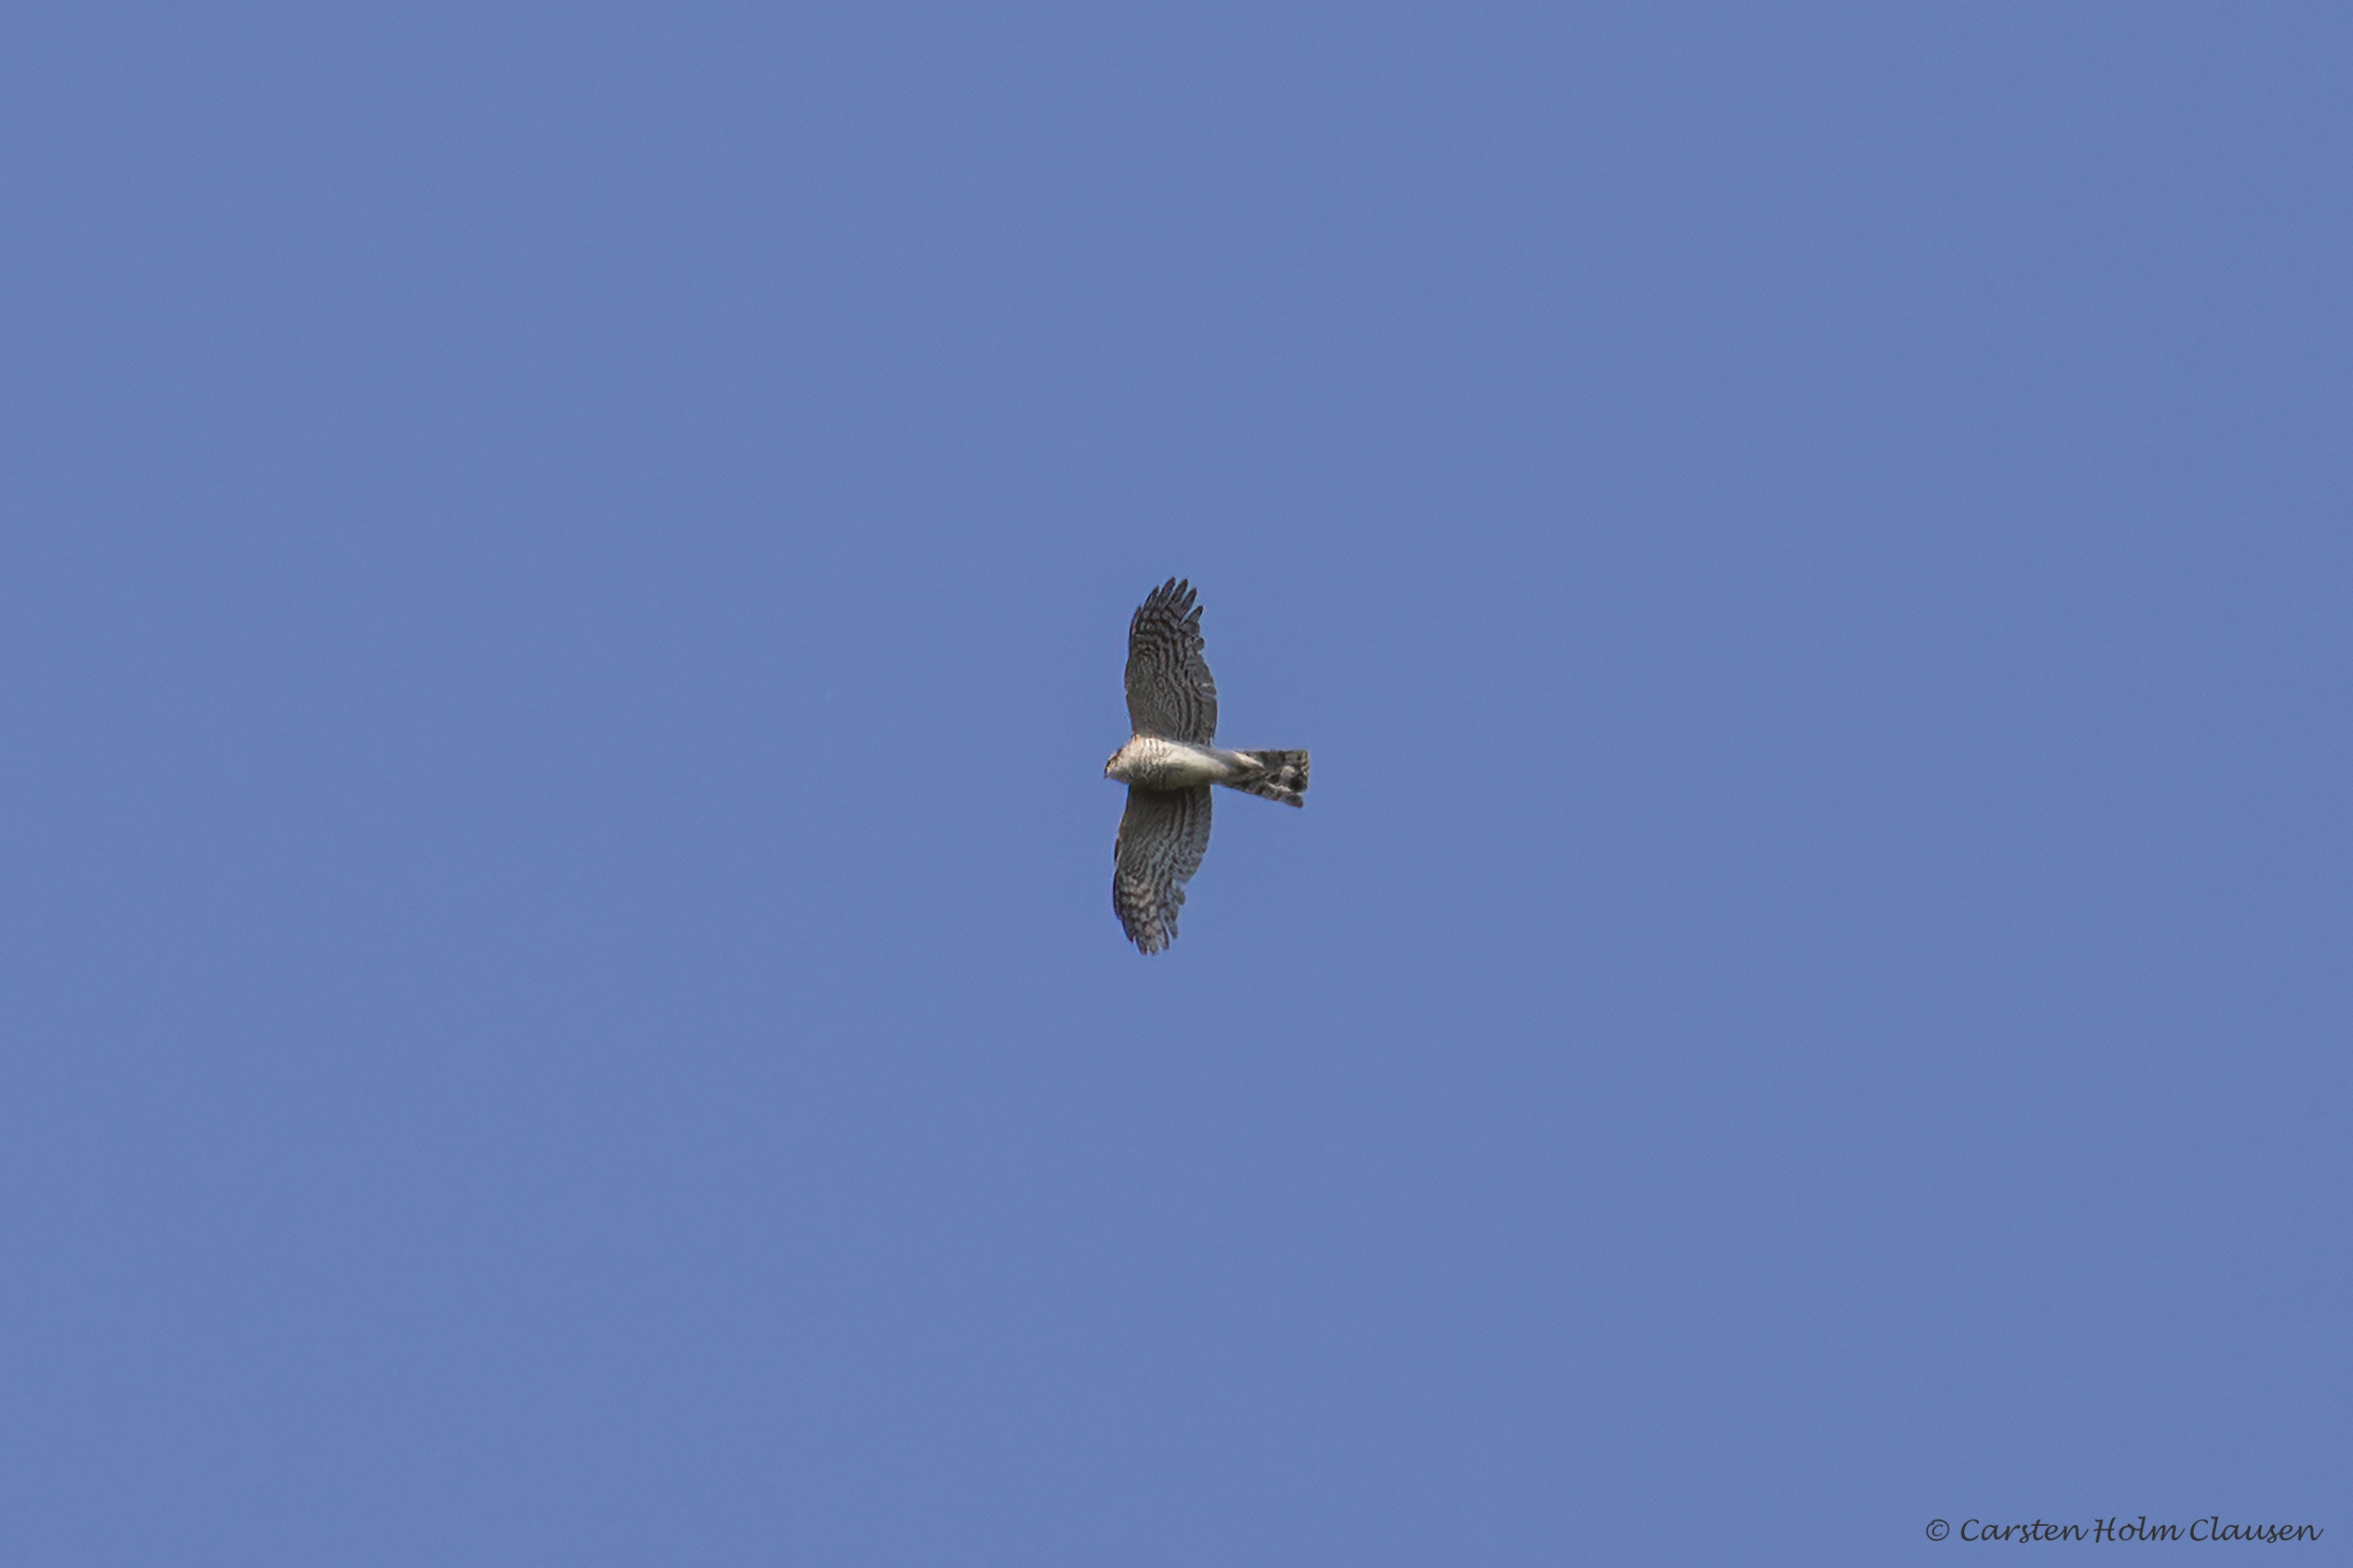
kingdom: Animalia
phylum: Chordata
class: Aves
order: Accipitriformes
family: Accipitridae
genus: Accipiter
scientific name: Accipiter nisus
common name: Spurvehøg
